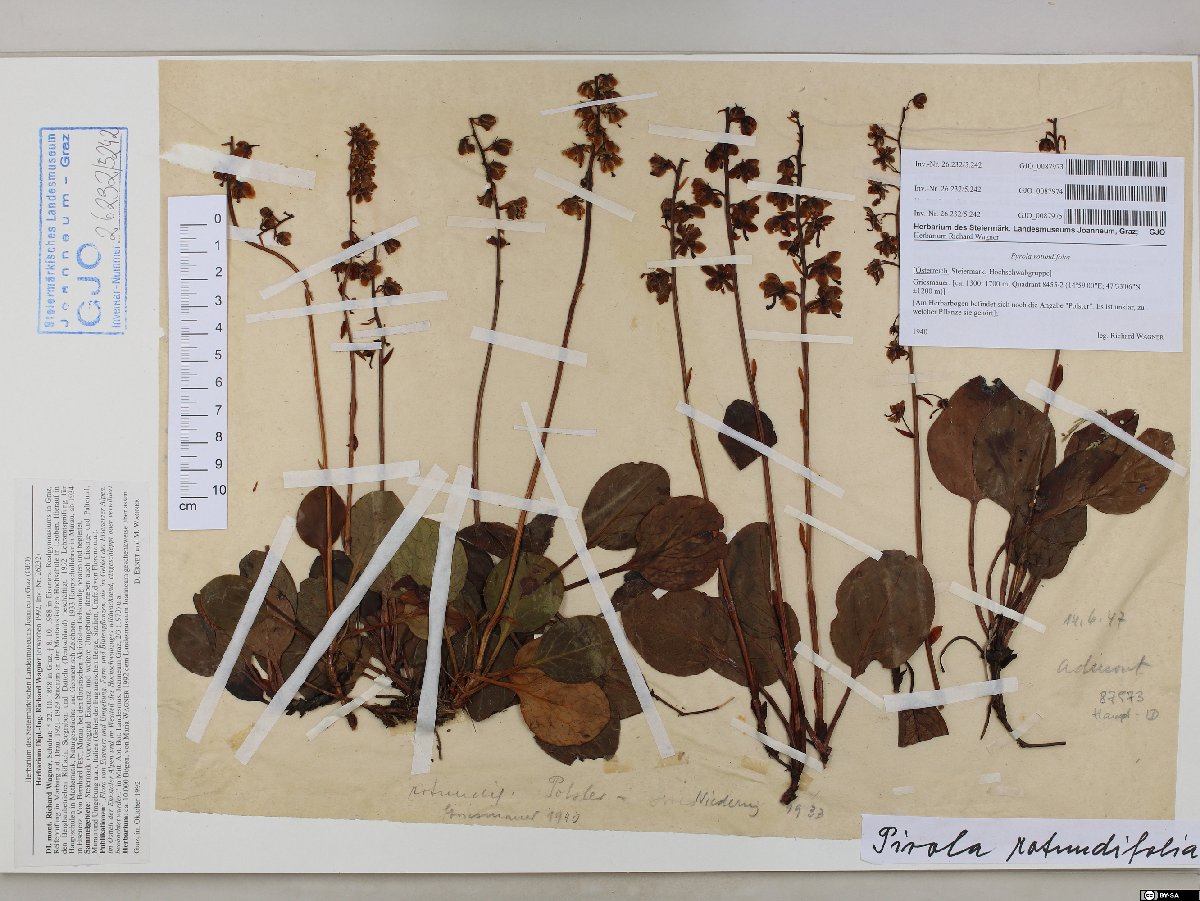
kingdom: Plantae
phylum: Tracheophyta
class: Magnoliopsida
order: Ericales
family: Ericaceae
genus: Pyrola
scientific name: Pyrola rotundifolia
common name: Round-leaved wintergreen
